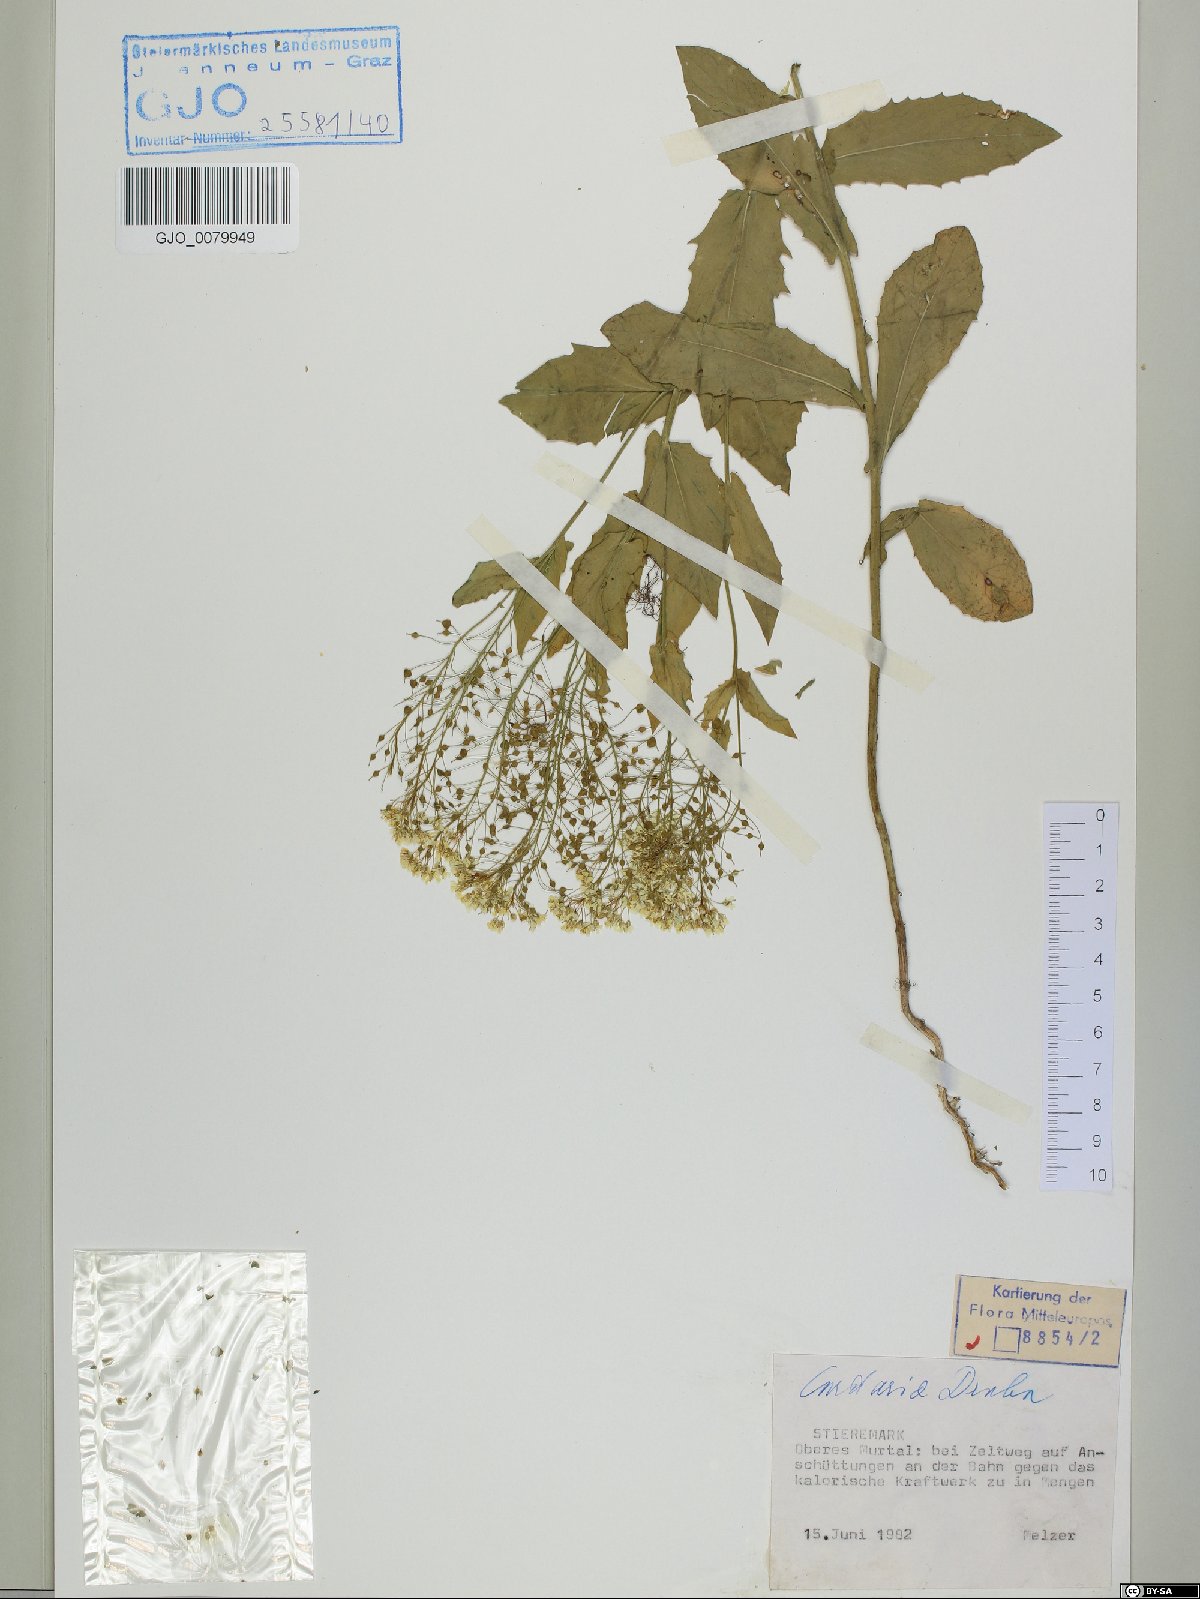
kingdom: Plantae
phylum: Tracheophyta
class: Magnoliopsida
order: Brassicales
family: Brassicaceae
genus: Lepidium
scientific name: Lepidium draba
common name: Hoary cress
